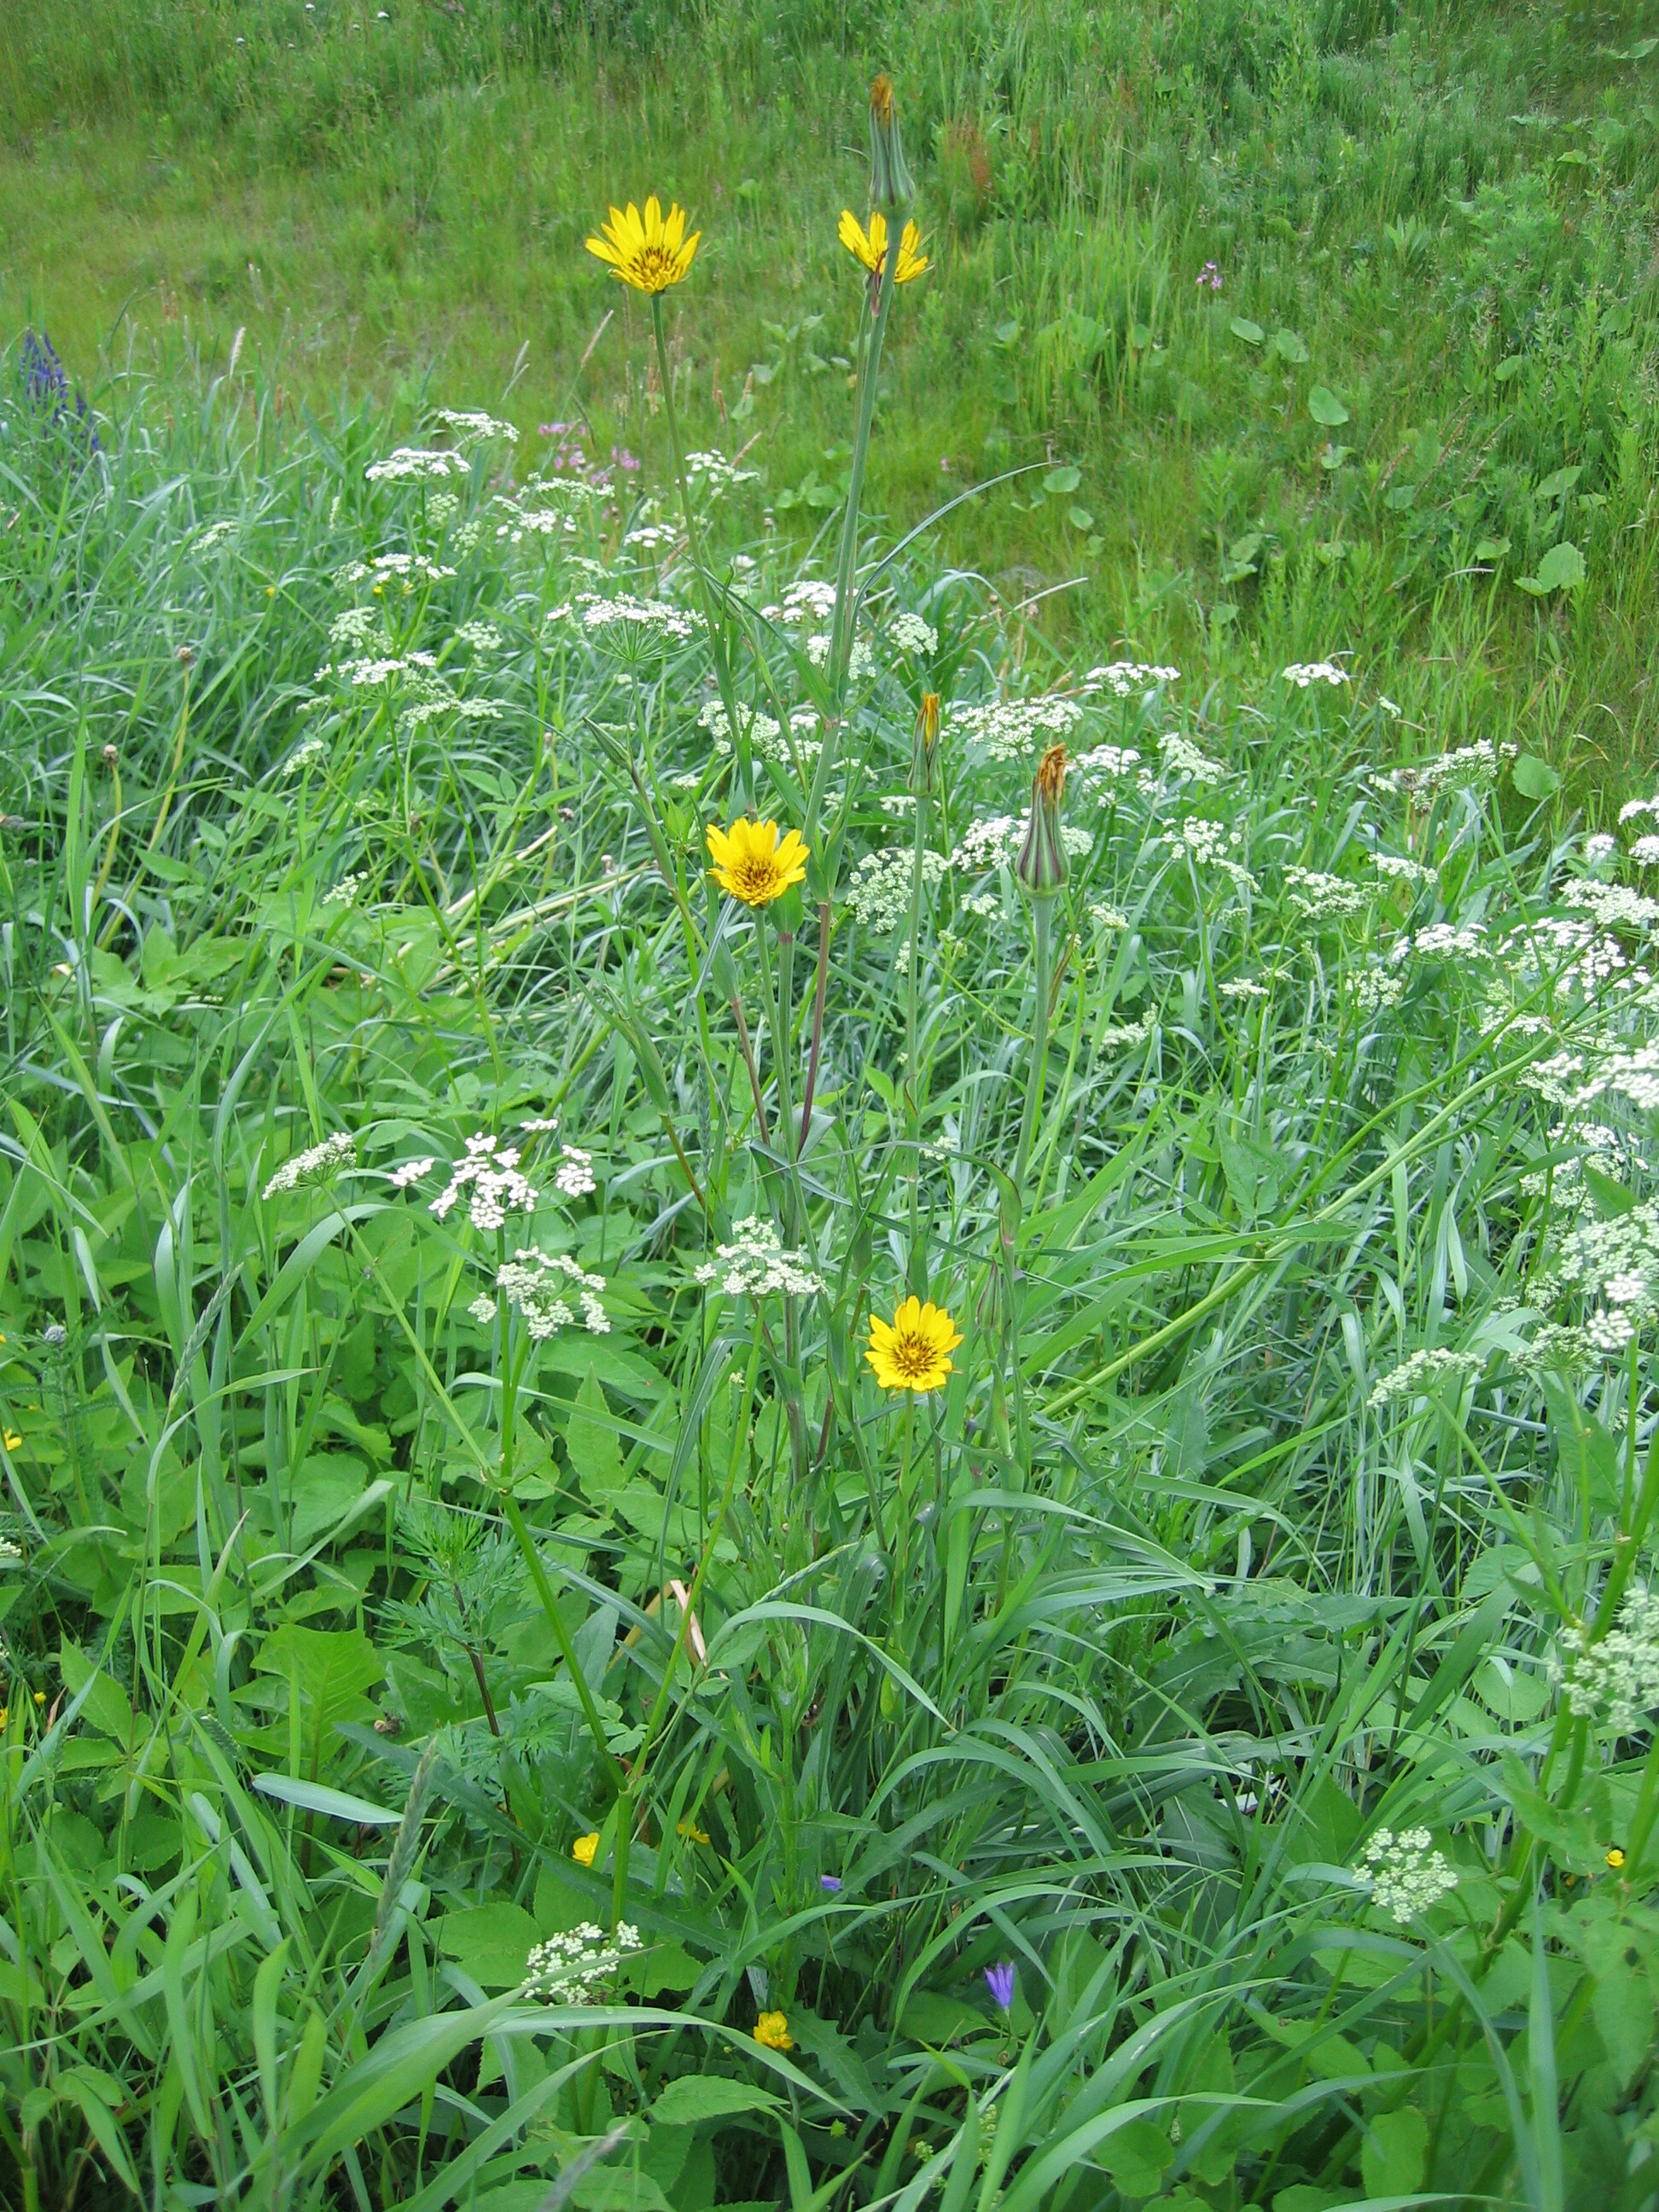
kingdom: Plantae
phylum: Tracheophyta
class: Magnoliopsida
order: Asterales
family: Asteraceae
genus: Tragopogon
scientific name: Tragopogon pratensis
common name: Goat's-beard
